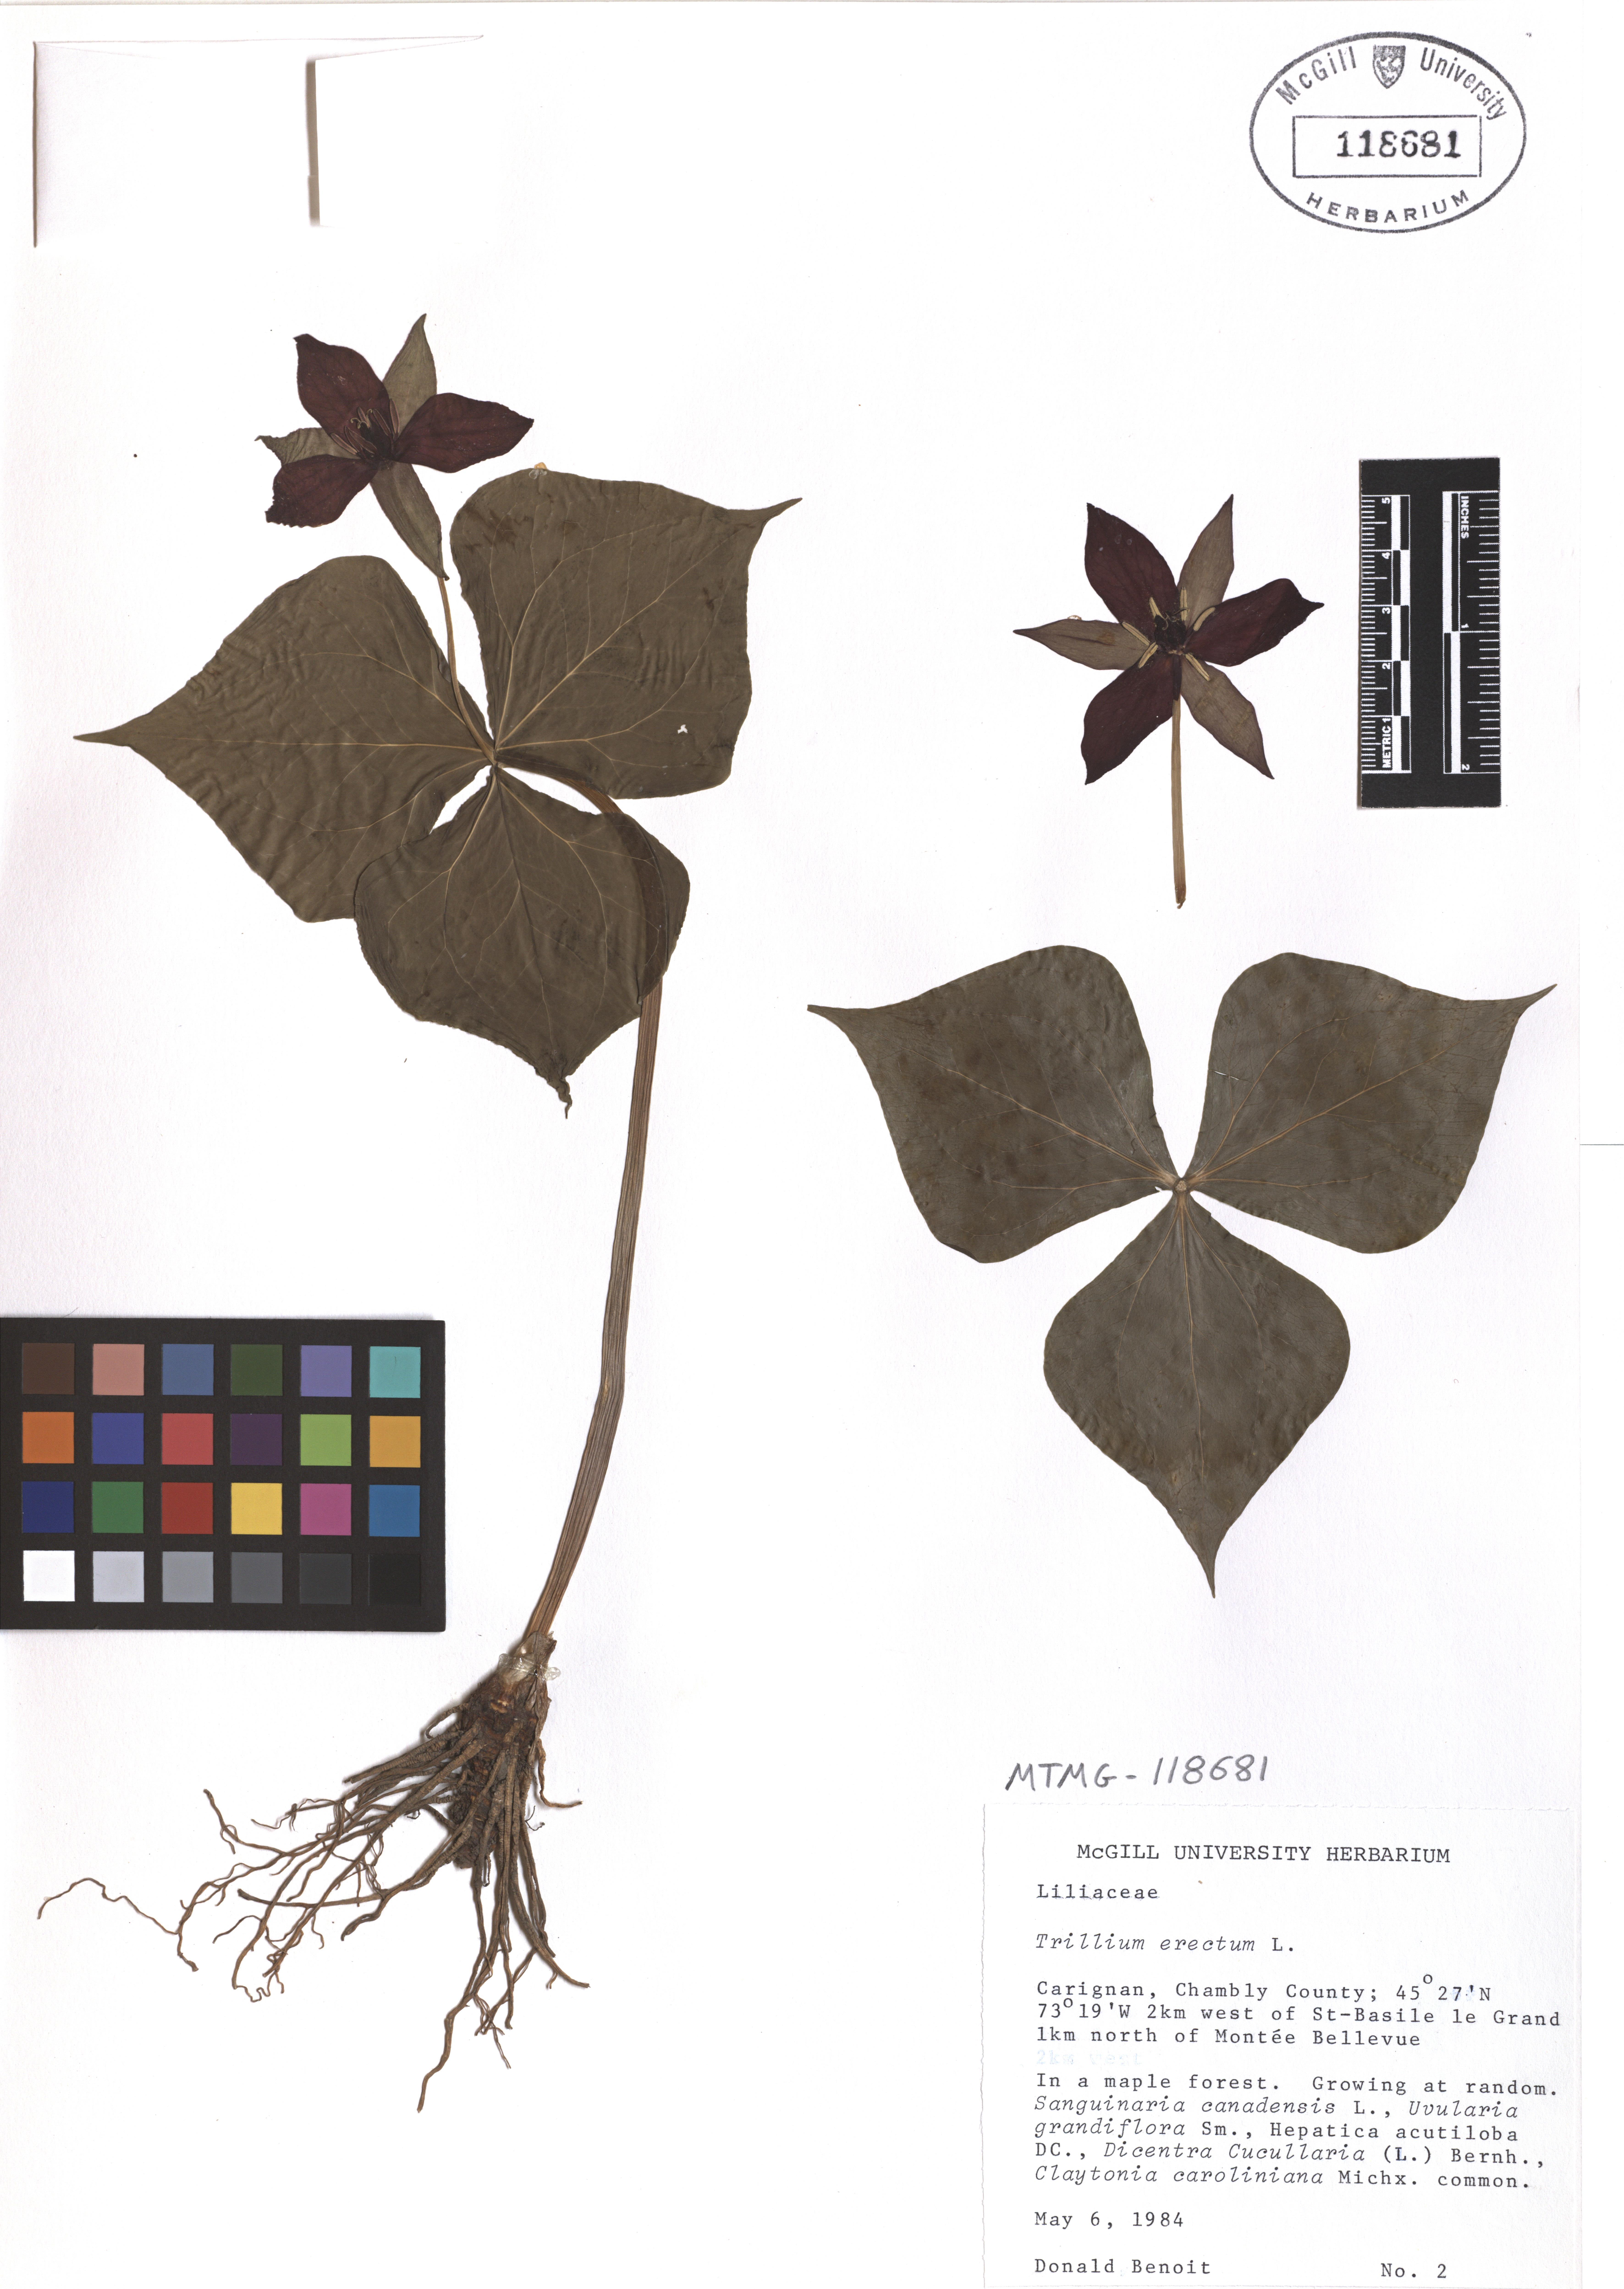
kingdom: Plantae
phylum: Tracheophyta
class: Liliopsida
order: Liliales
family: Melanthiaceae
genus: Trillium
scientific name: Trillium erectum
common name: Purple trillium
